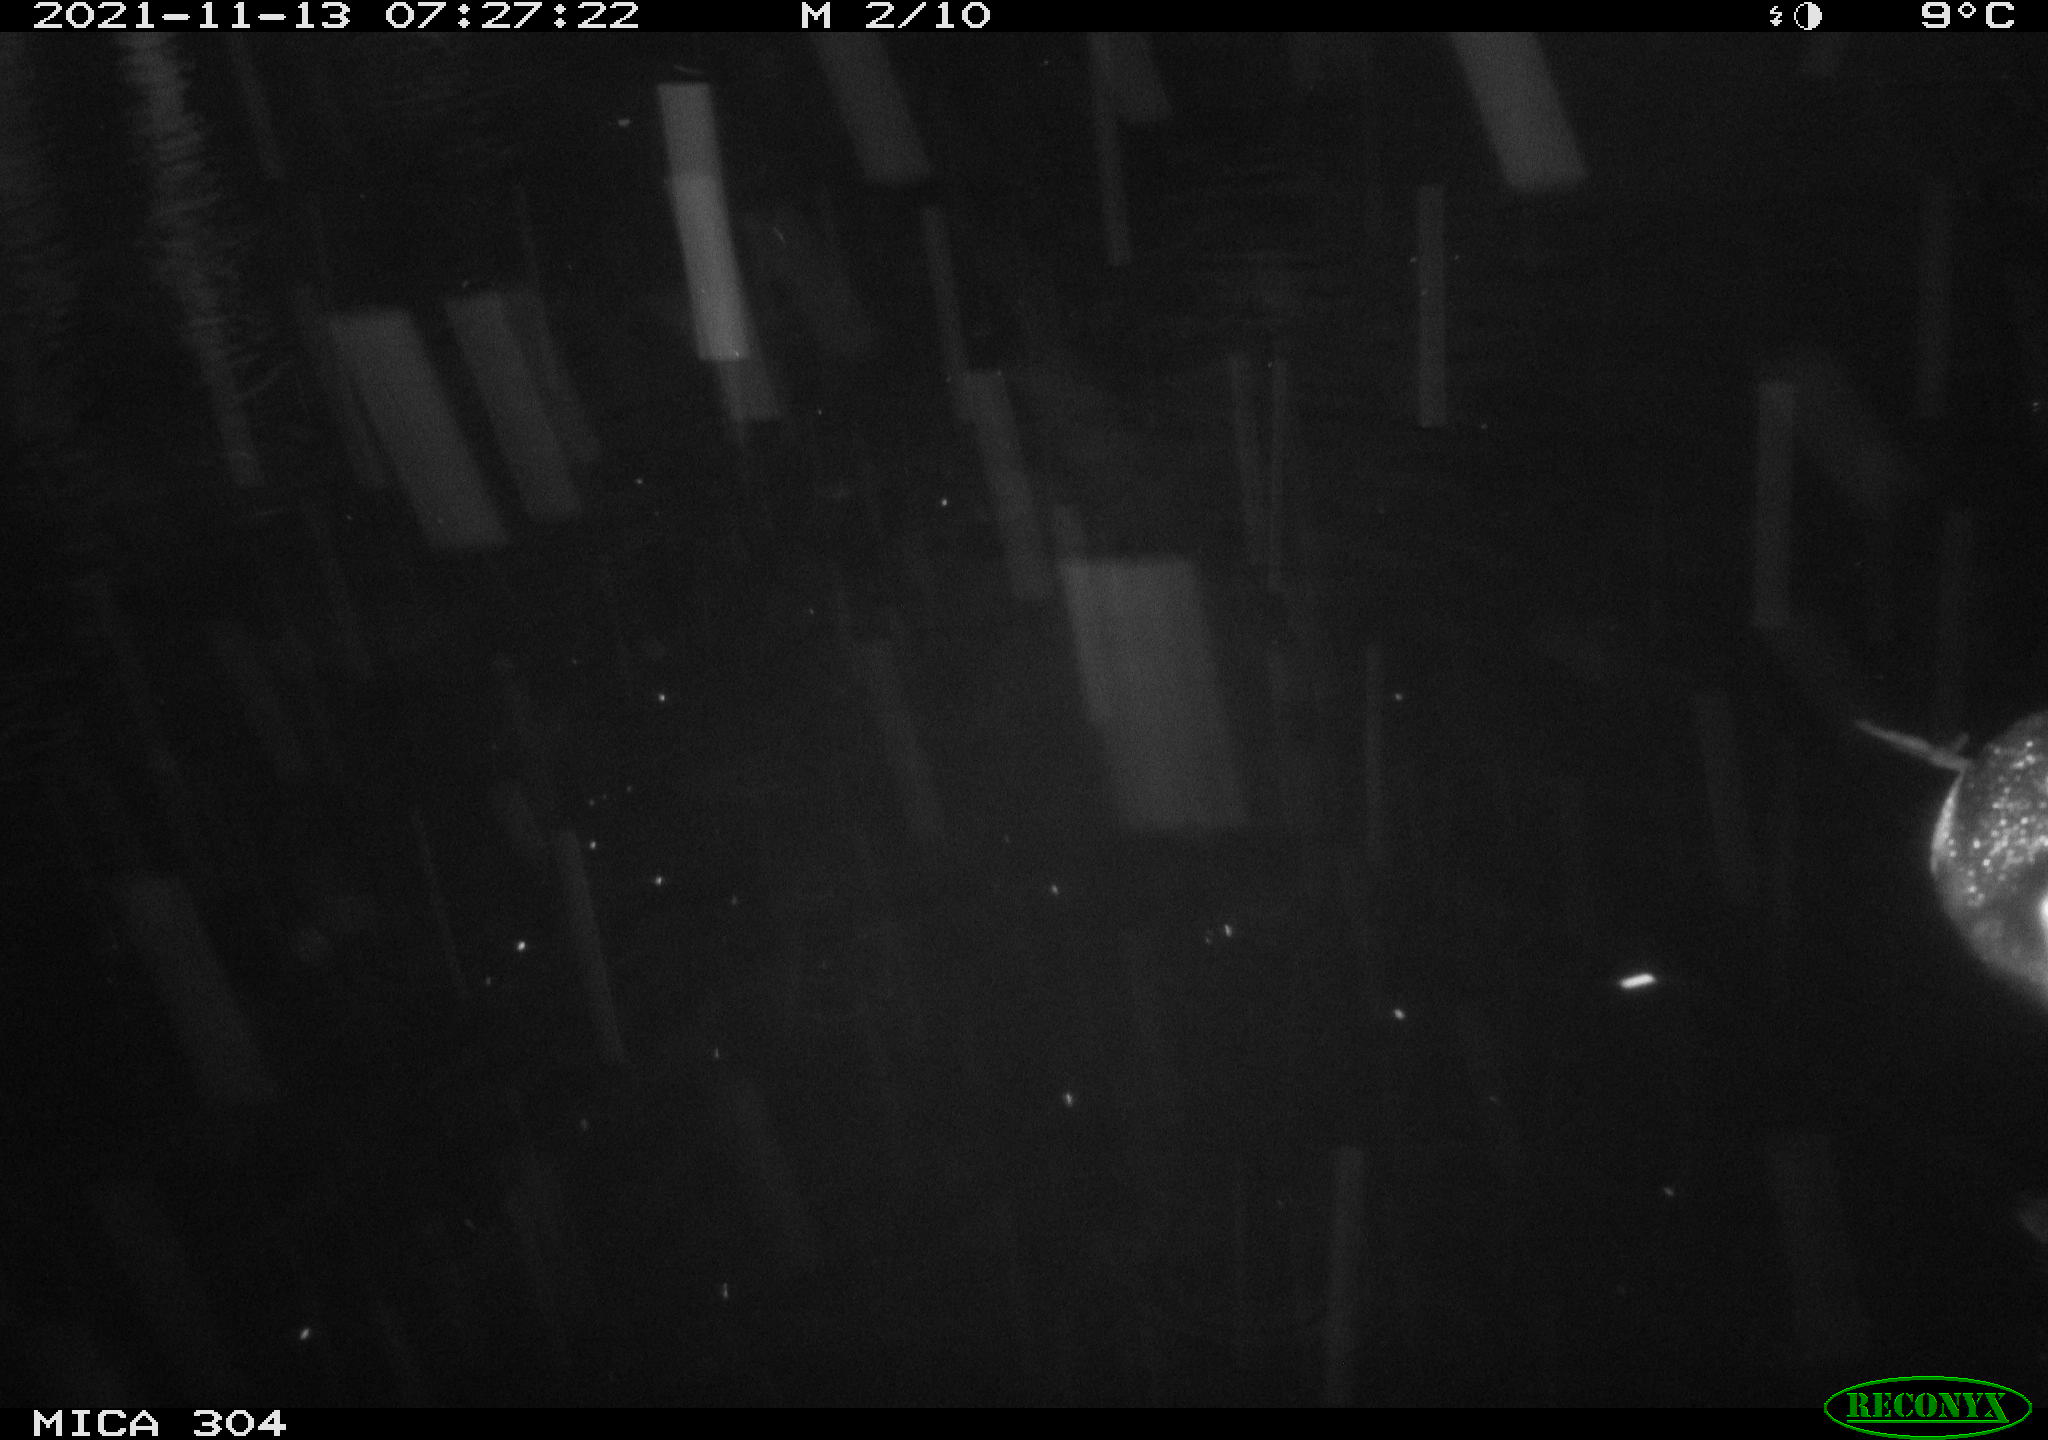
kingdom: Animalia
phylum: Chordata
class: Aves
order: Gruiformes
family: Rallidae
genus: Fulica
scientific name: Fulica atra
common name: Eurasian coot
